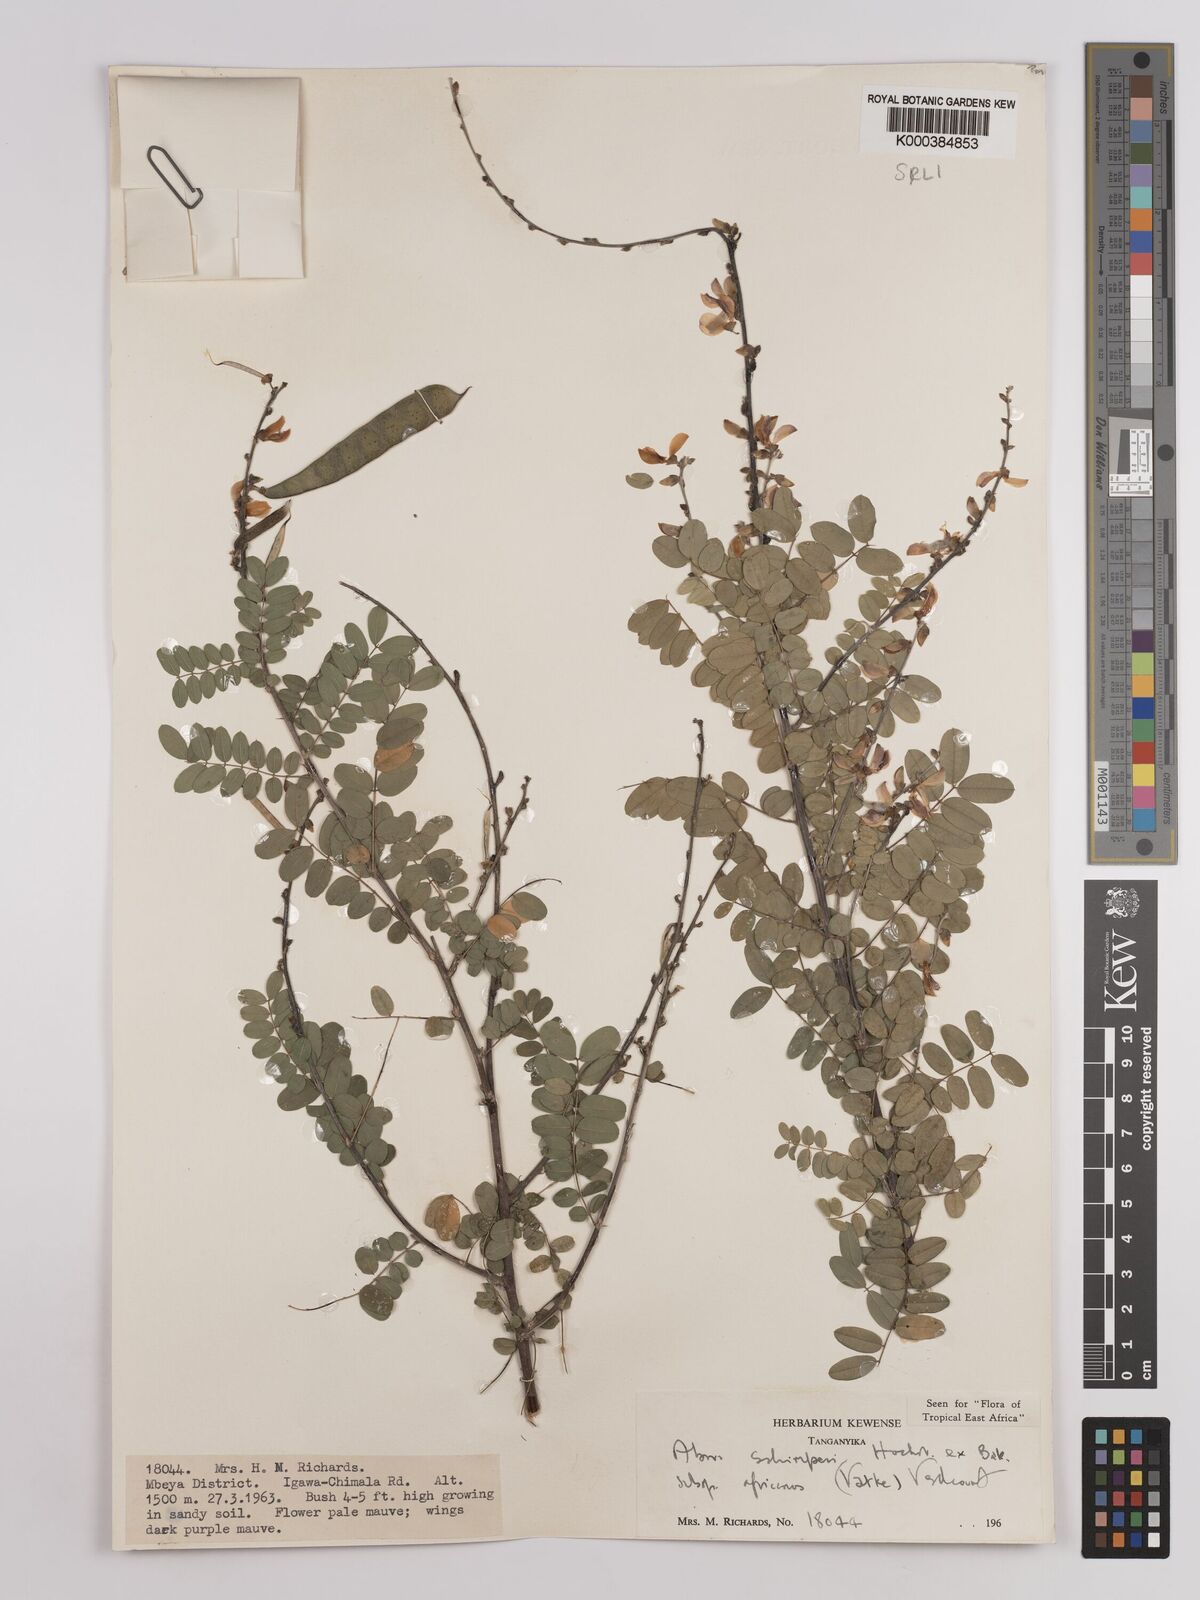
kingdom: Plantae
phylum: Tracheophyta
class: Magnoliopsida
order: Fabales
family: Fabaceae
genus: Abrus
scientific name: Abrus fruticulosus
